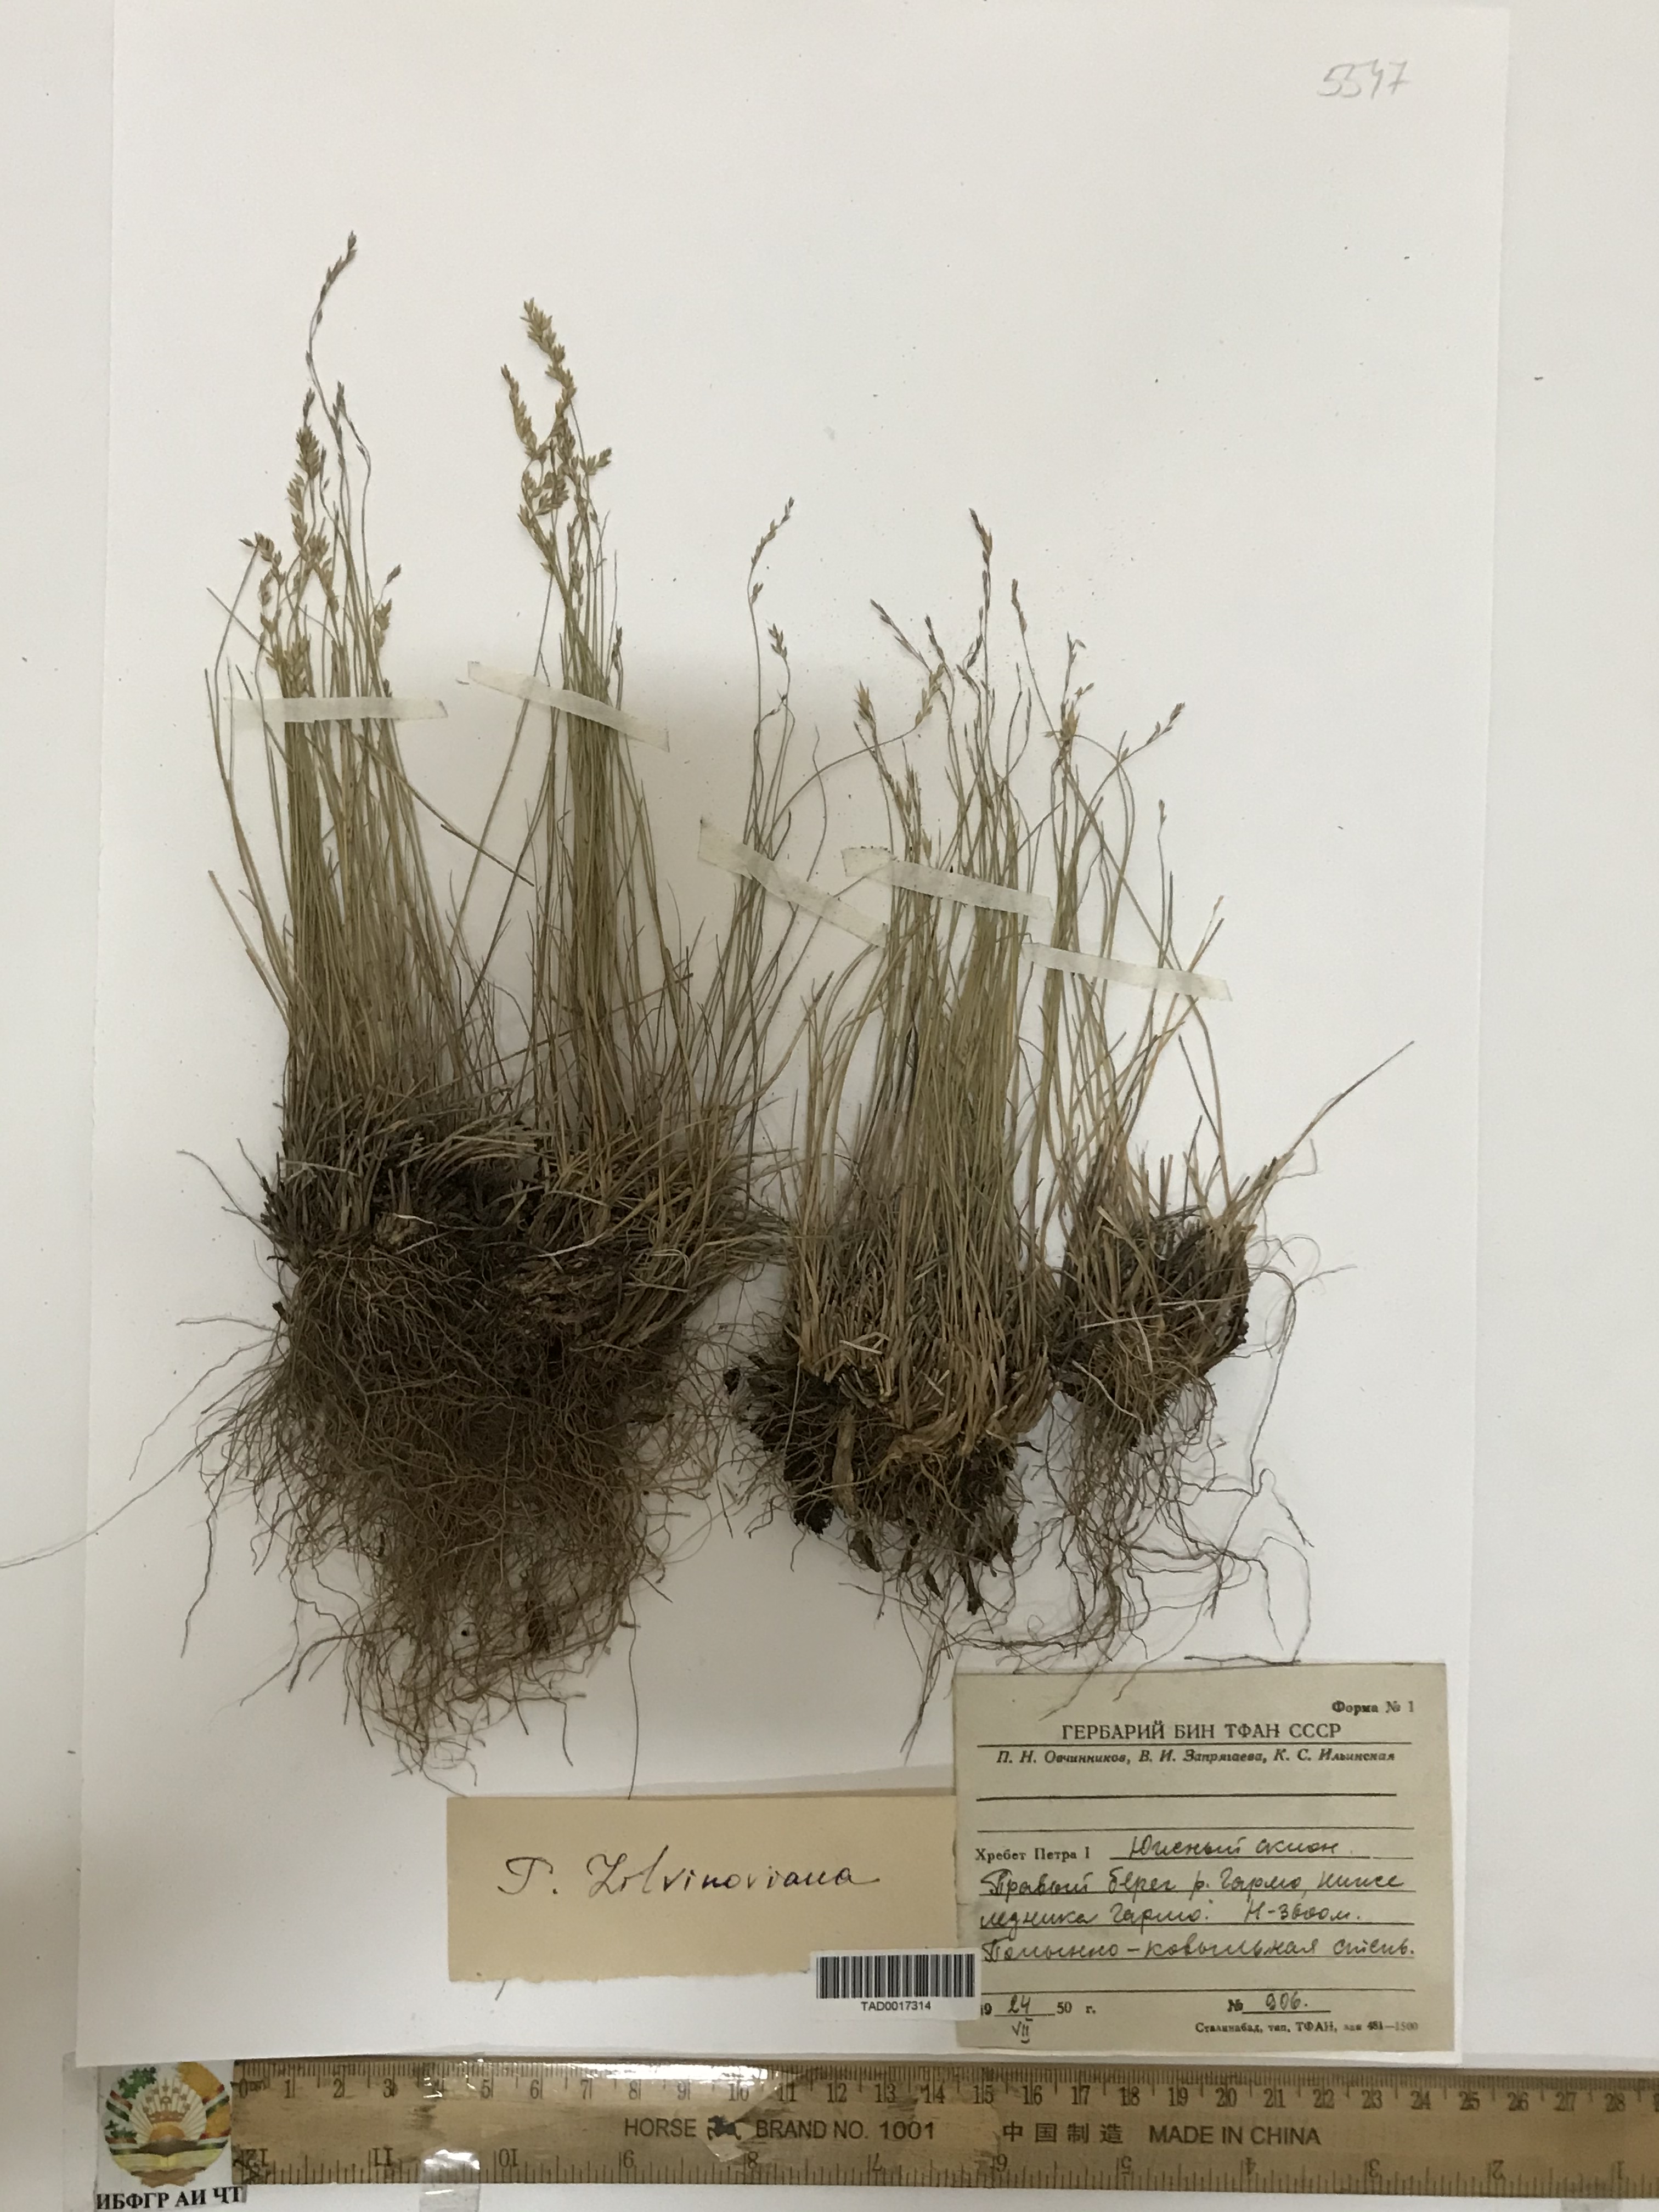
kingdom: Plantae
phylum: Tracheophyta
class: Liliopsida
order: Poales
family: Poaceae
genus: Poa
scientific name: Poa glauca
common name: Glaucous bluegrass
